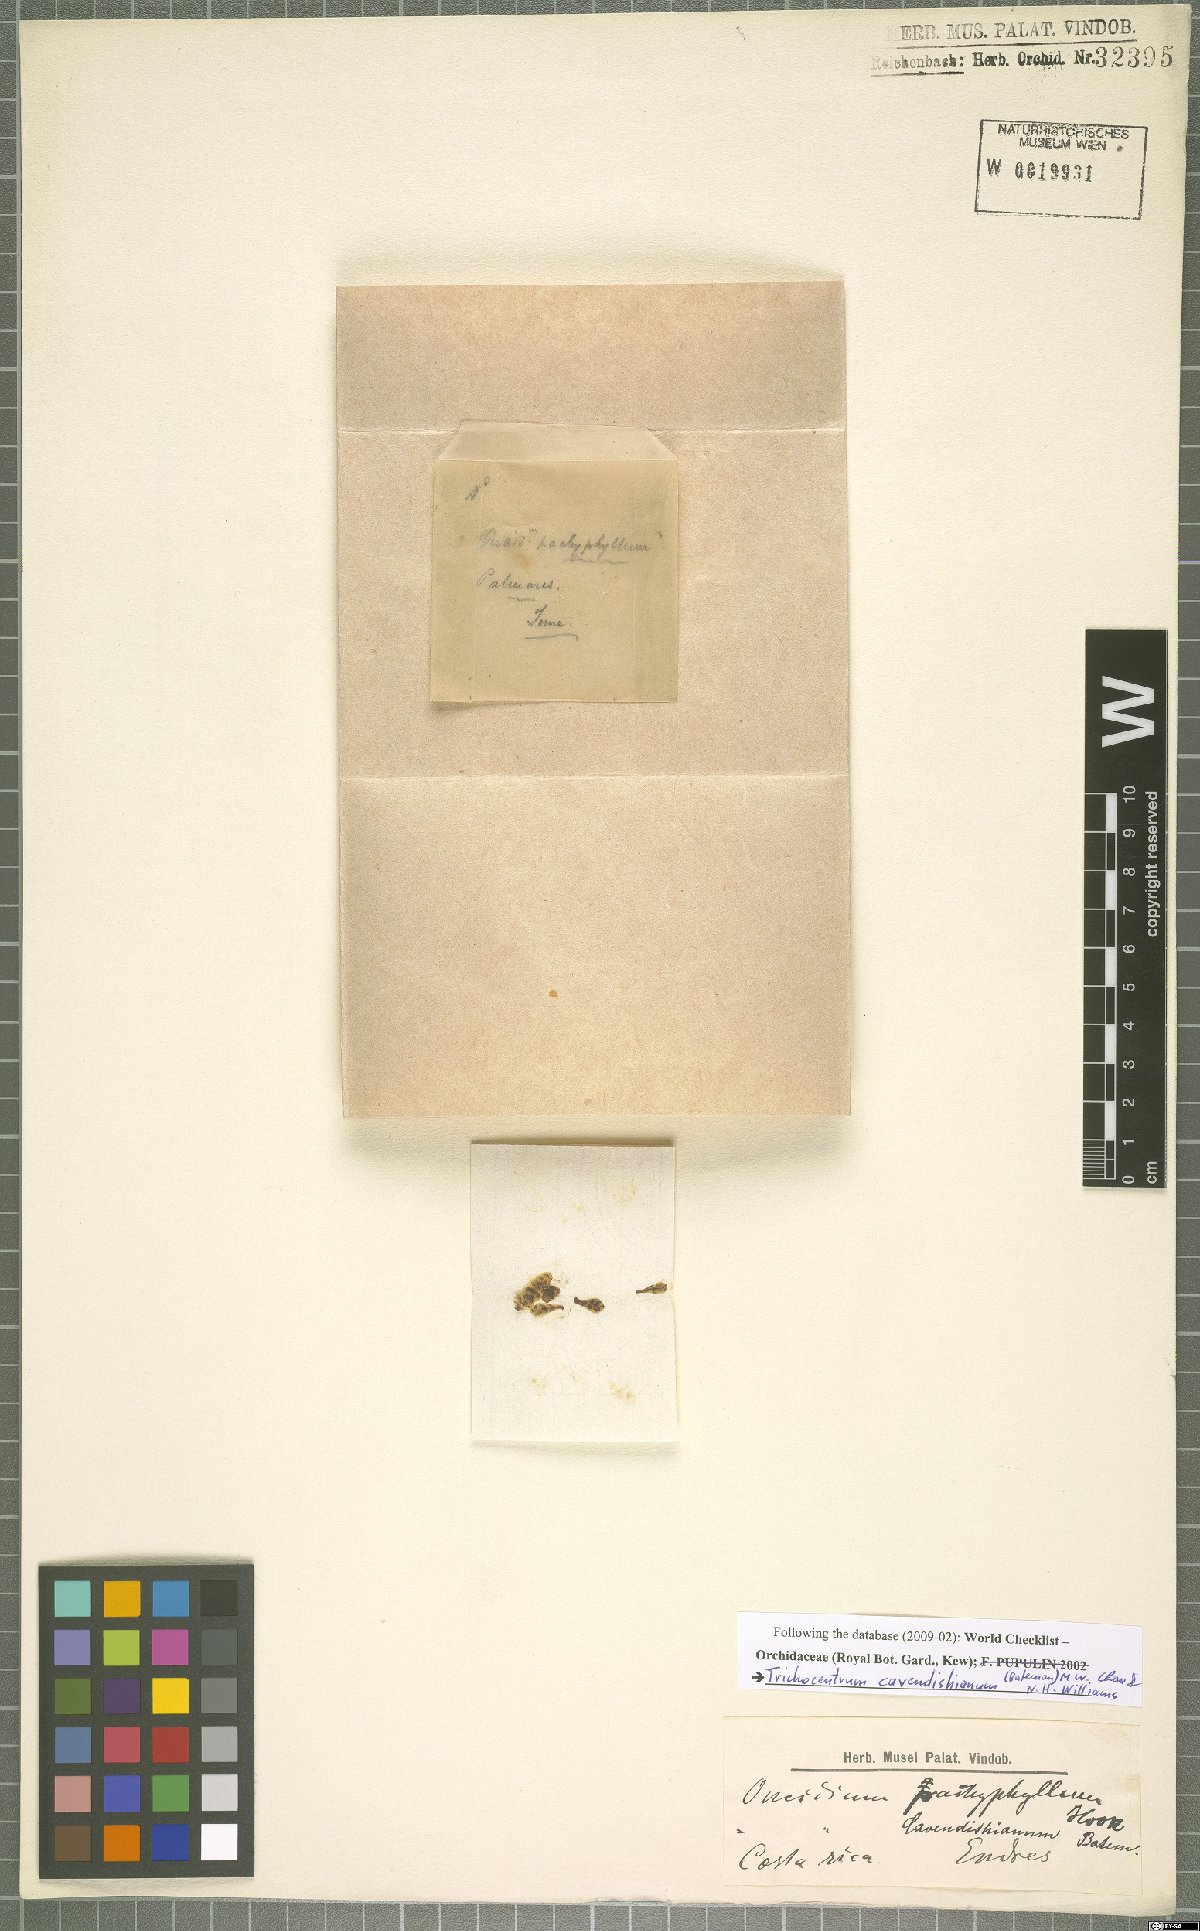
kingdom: Plantae
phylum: Tracheophyta
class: Liliopsida
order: Asparagales
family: Orchidaceae
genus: Trichocentrum
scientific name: Trichocentrum carthagenense
